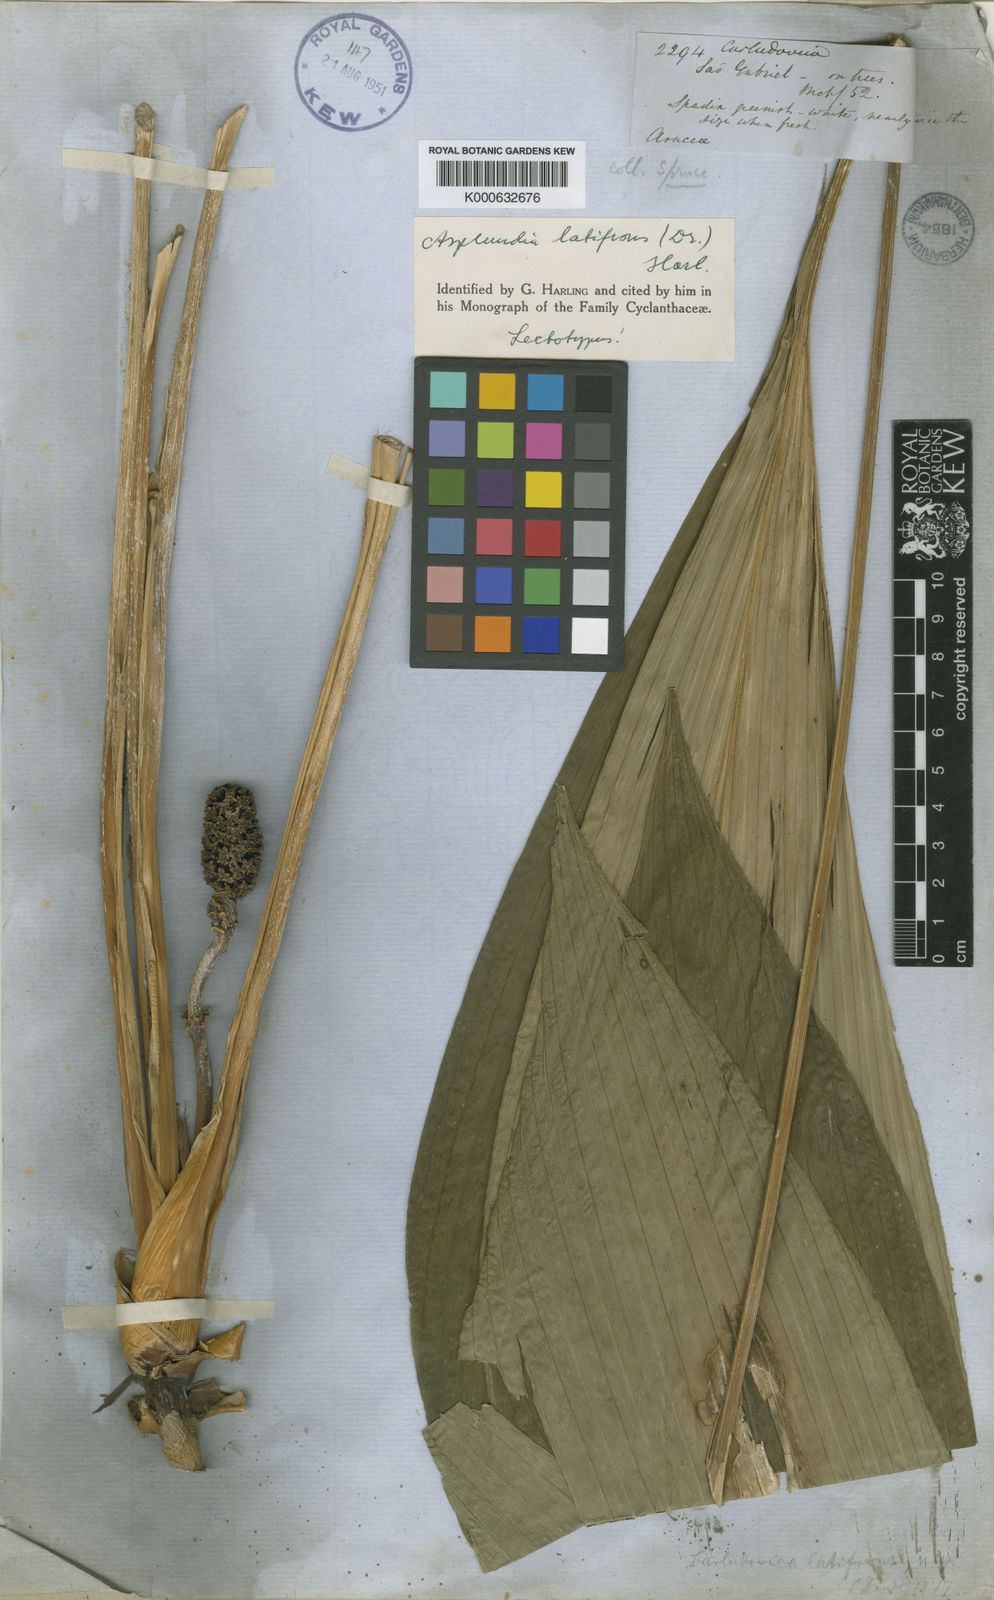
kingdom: Plantae
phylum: Tracheophyta
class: Liliopsida
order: Pandanales
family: Cyclanthaceae
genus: Asplundia
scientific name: Asplundia latifrons
